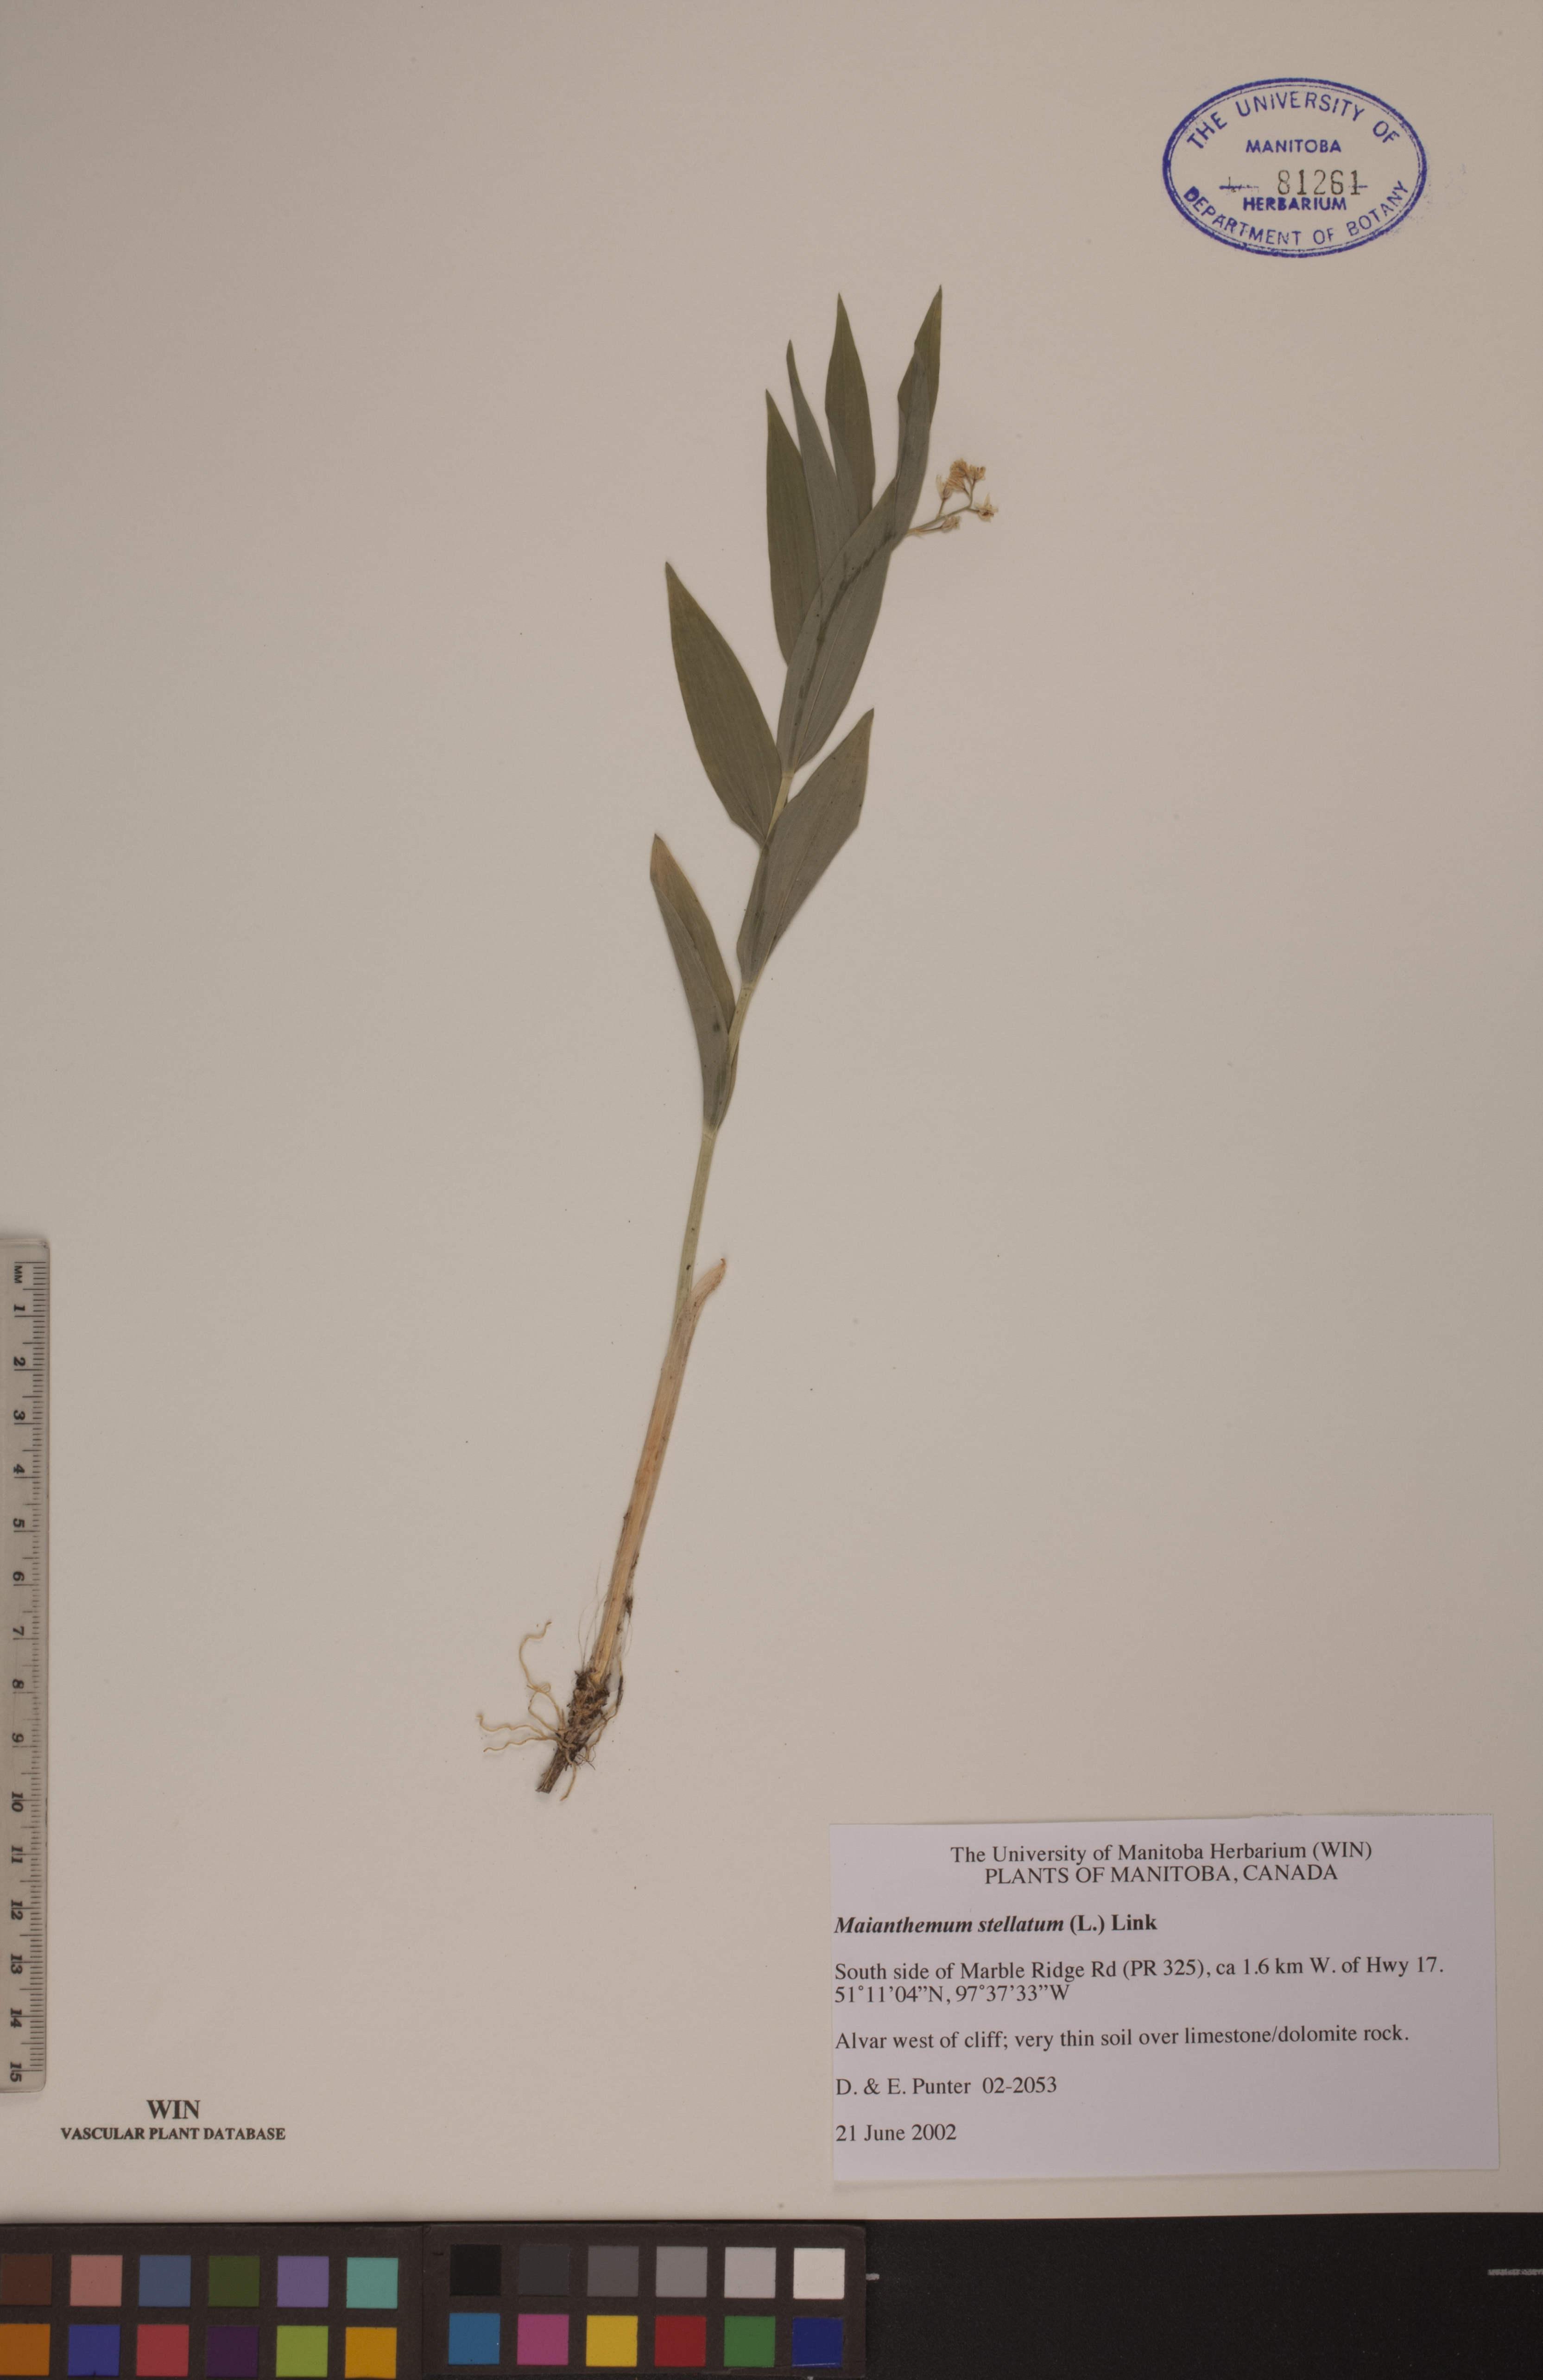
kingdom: Plantae
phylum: Tracheophyta
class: Liliopsida
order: Asparagales
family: Asparagaceae
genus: Maianthemum
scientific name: Maianthemum stellatum
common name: Little false solomon's seal
